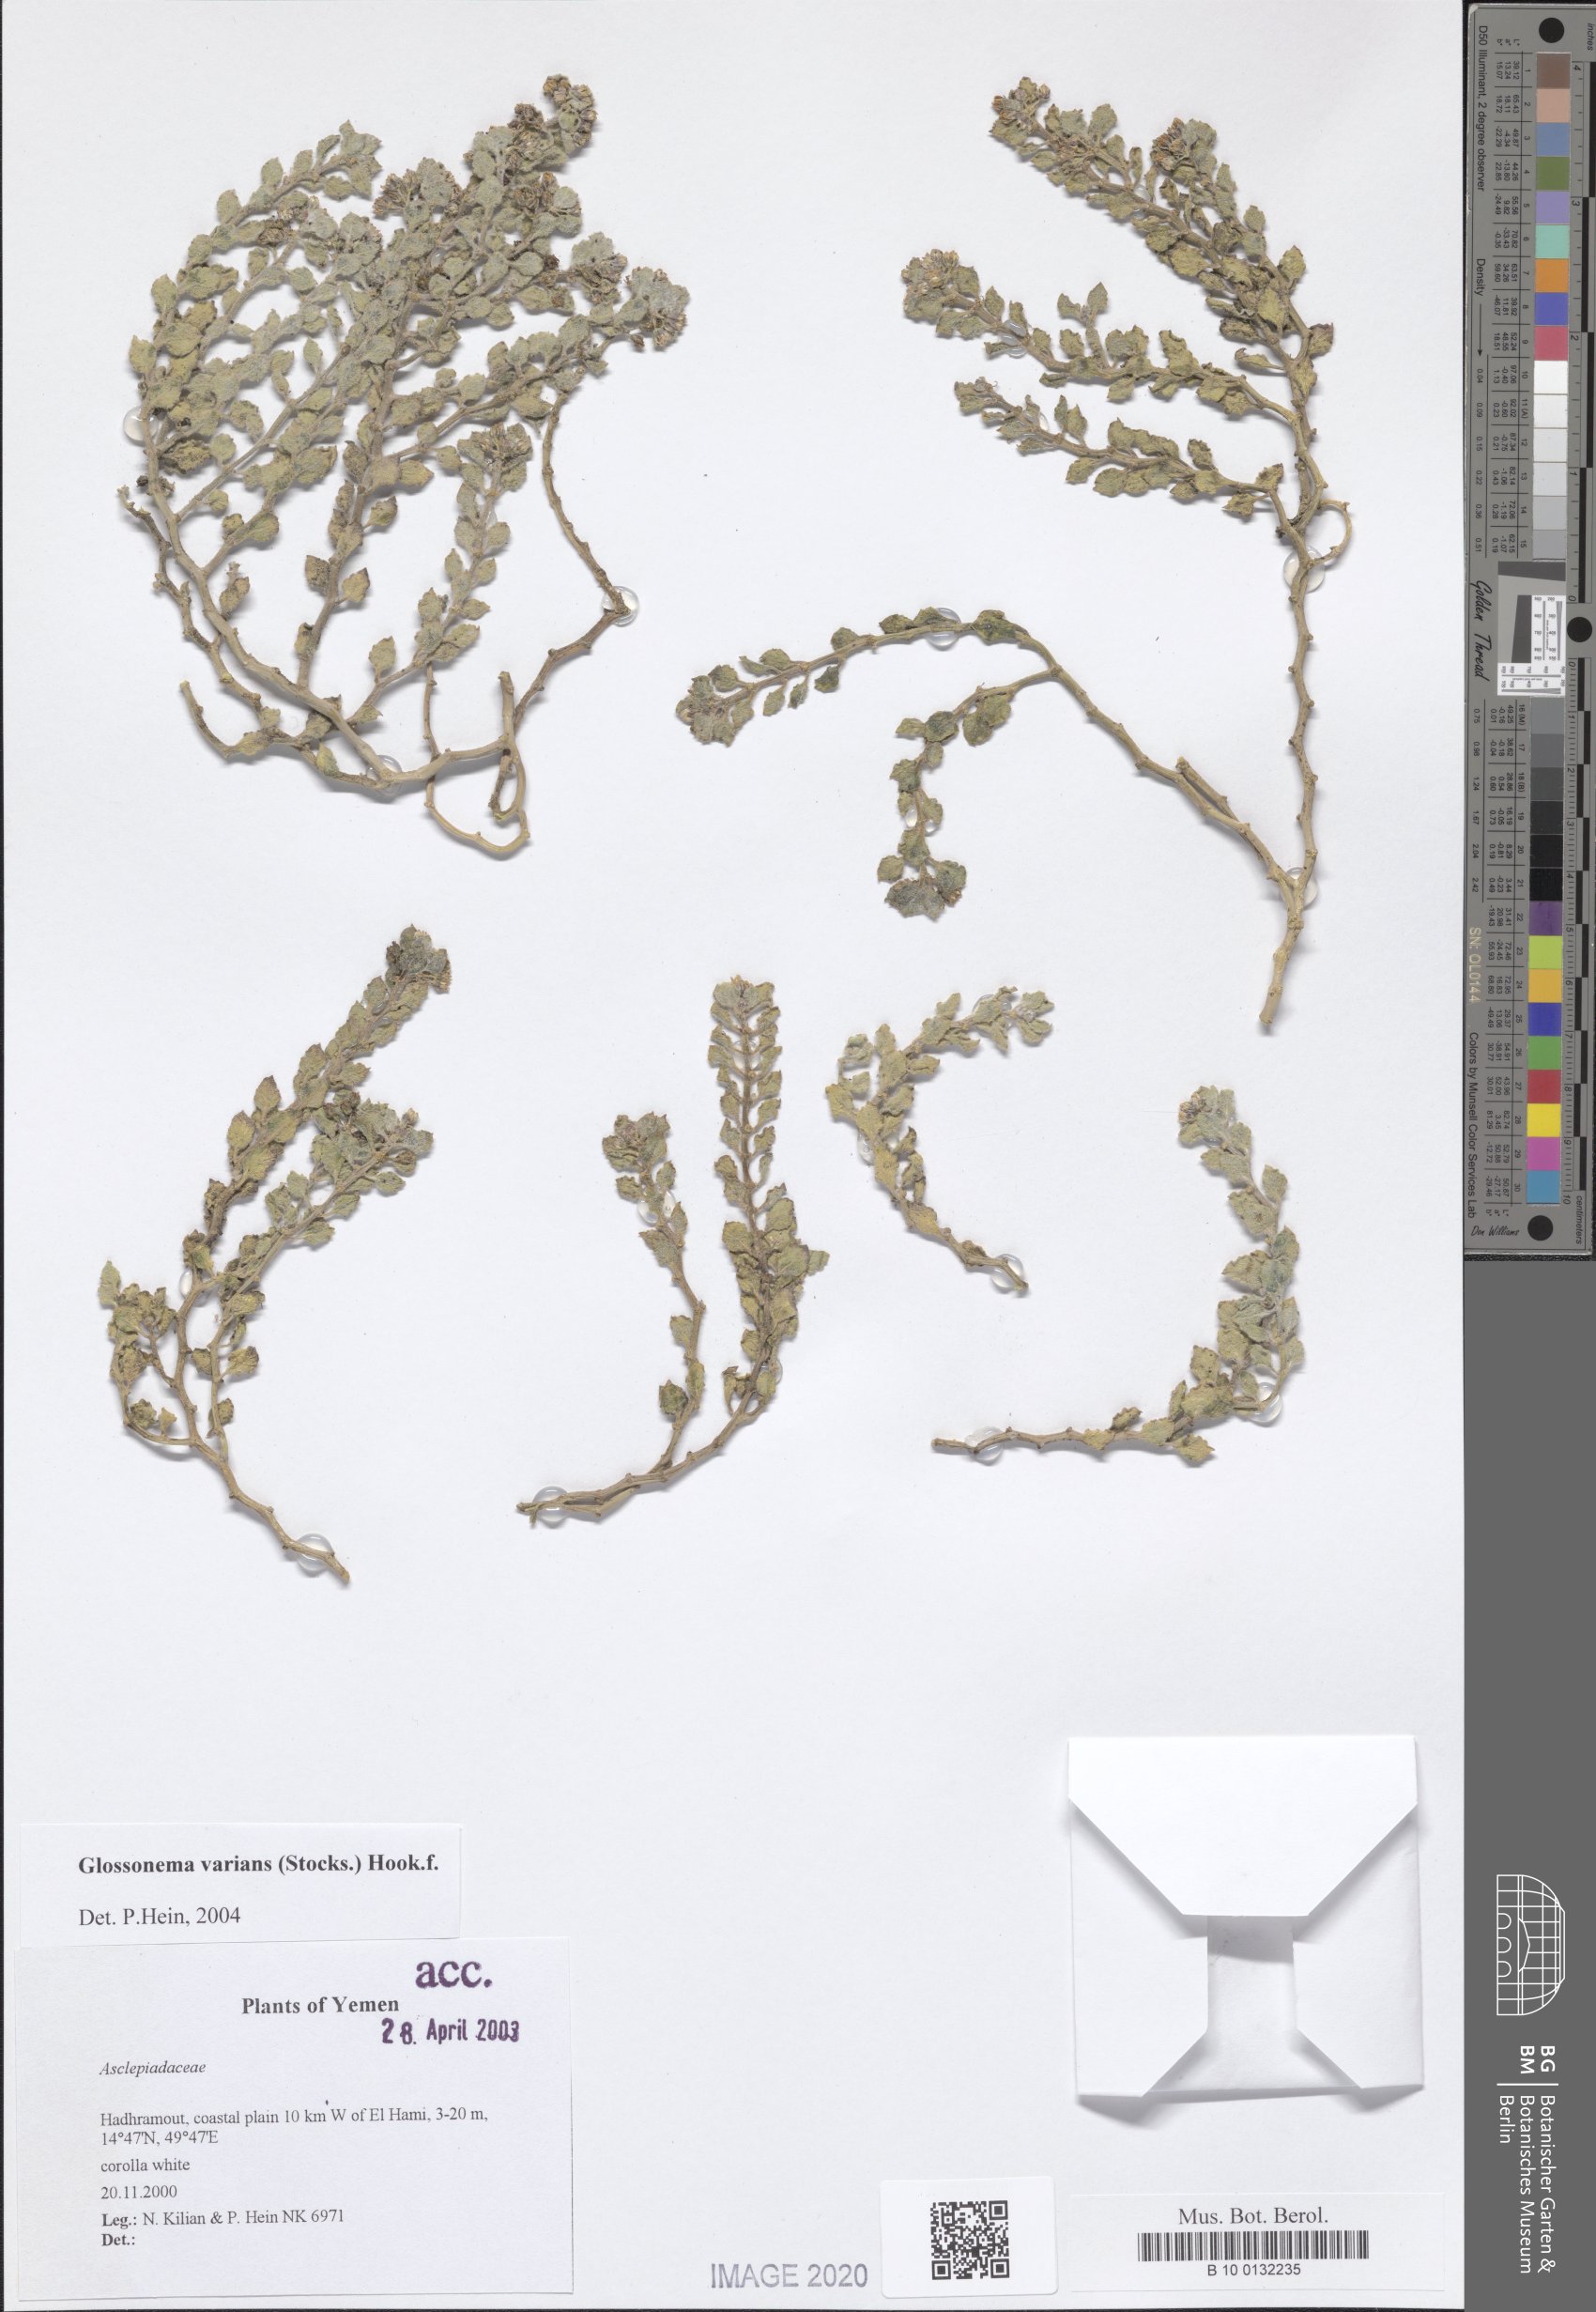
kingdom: Plantae
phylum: Tracheophyta
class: Magnoliopsida
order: Gentianales
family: Apocynaceae
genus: Cynanchum
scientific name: Cynanchum varians
